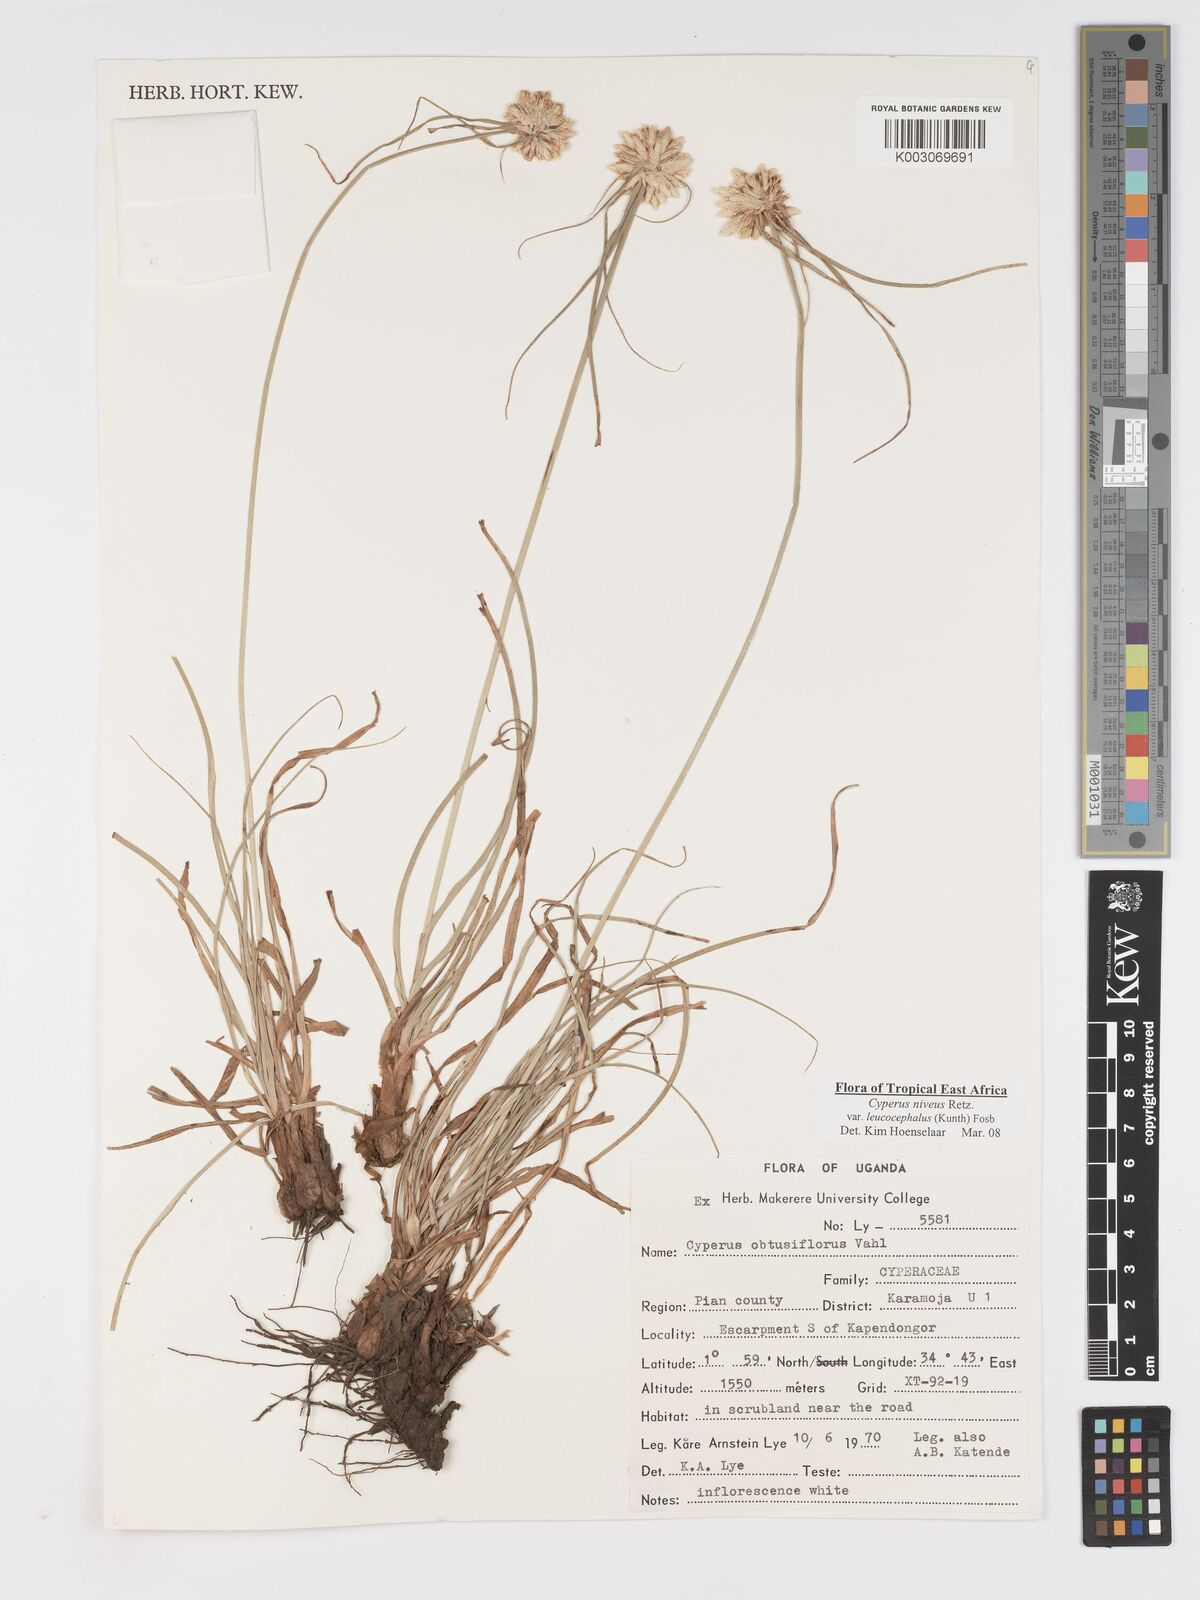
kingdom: Plantae
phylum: Tracheophyta
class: Liliopsida
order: Poales
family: Cyperaceae
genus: Cyperus
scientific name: Cyperus niveus
